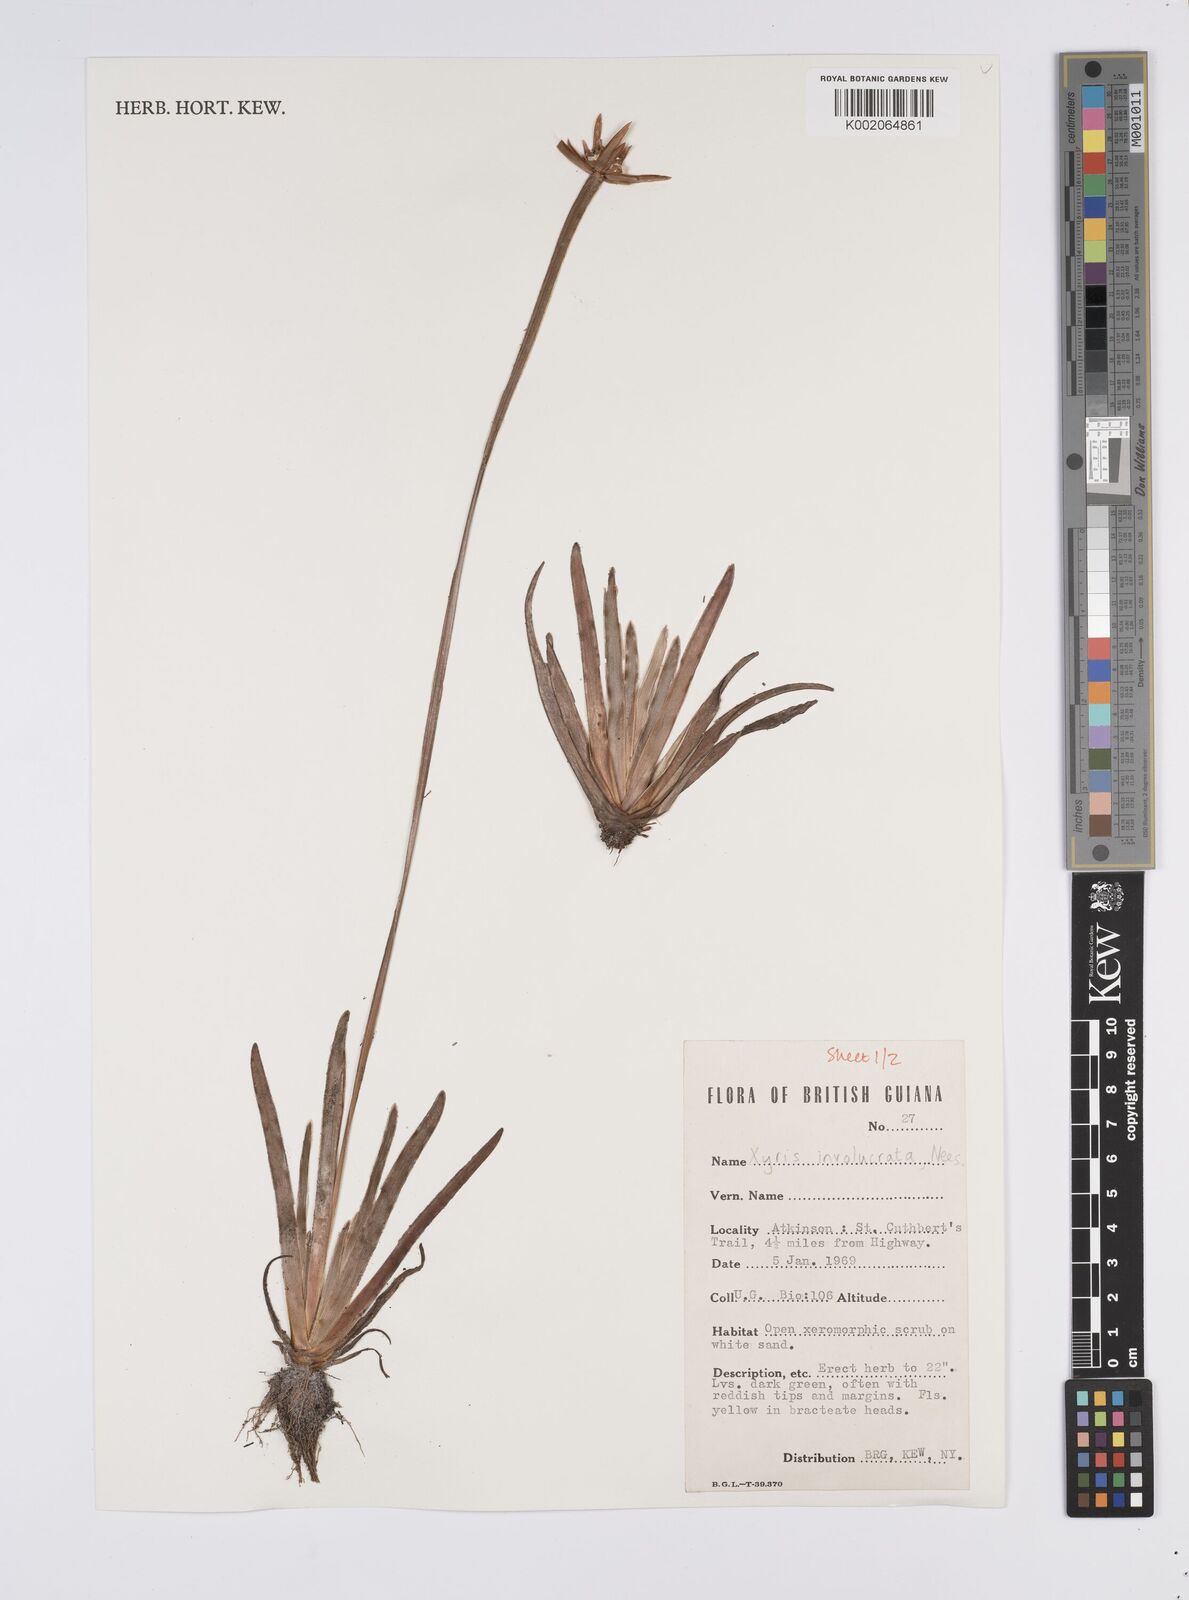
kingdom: Plantae
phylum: Tracheophyta
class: Liliopsida
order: Poales
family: Xyridaceae
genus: Xyris
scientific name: Xyris involucrata
